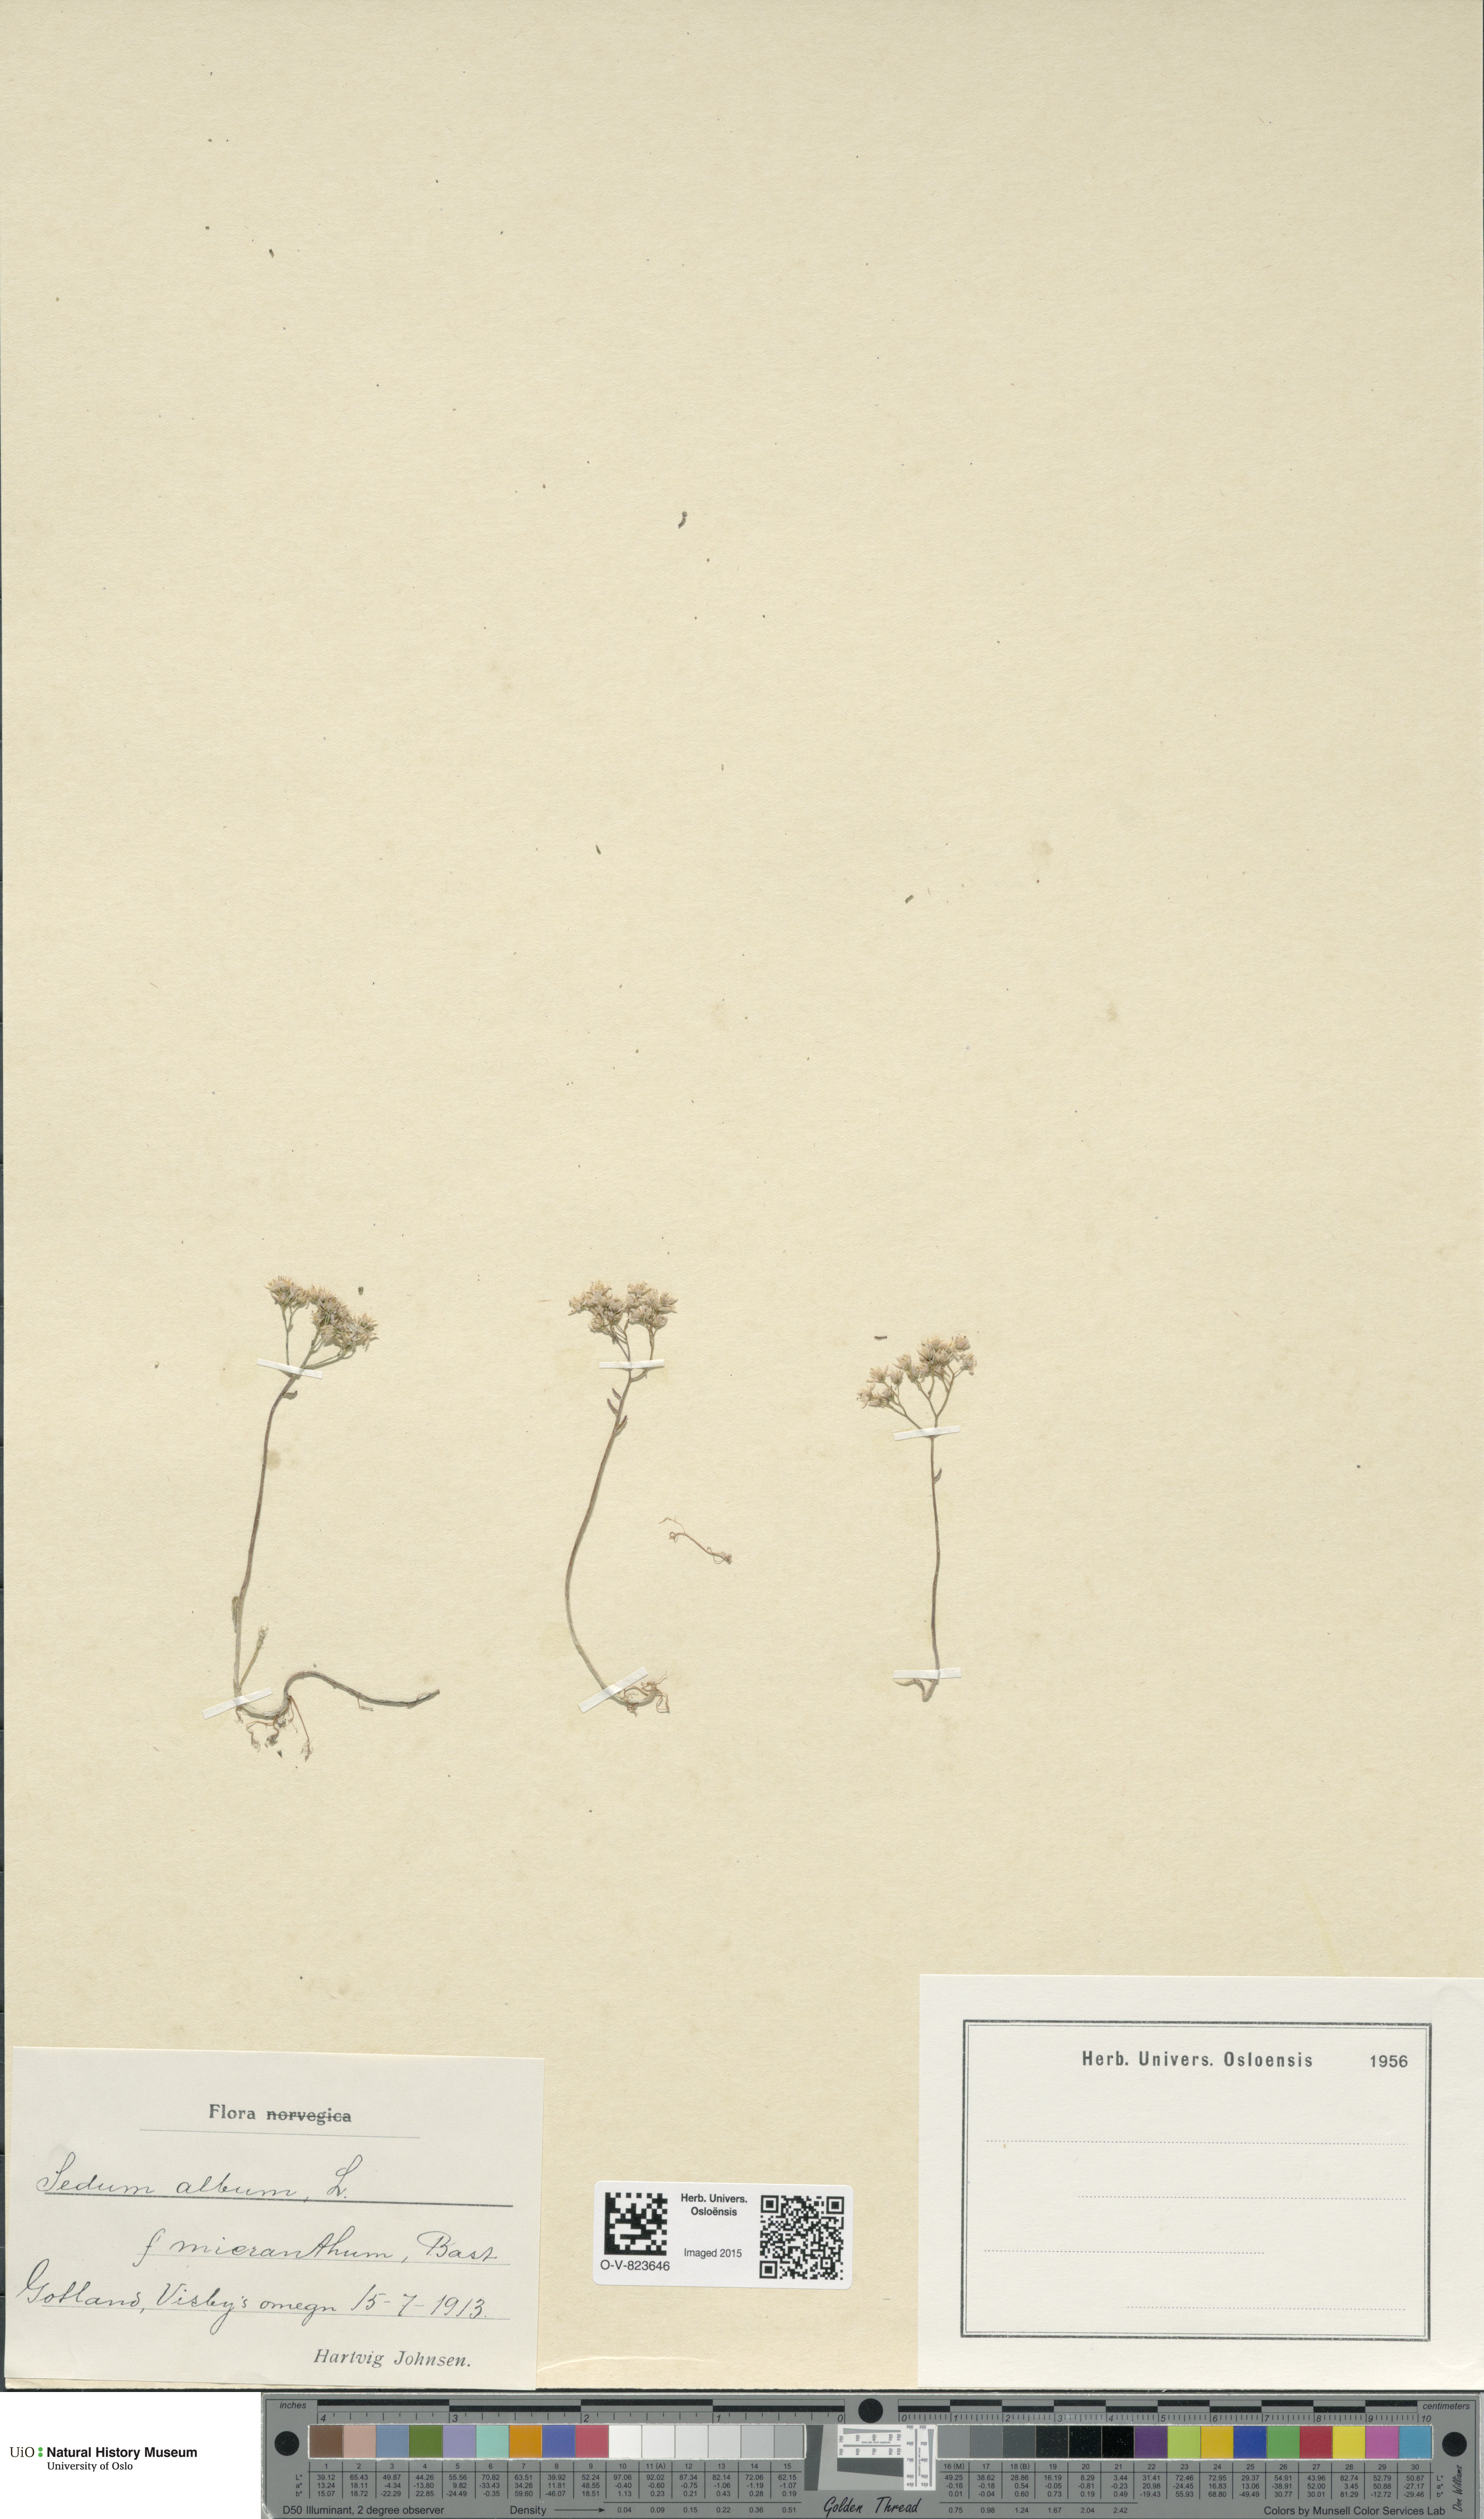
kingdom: Plantae
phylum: Tracheophyta
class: Magnoliopsida
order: Saxifragales
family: Crassulaceae
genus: Sedum
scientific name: Sedum album
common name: White stonecrop
